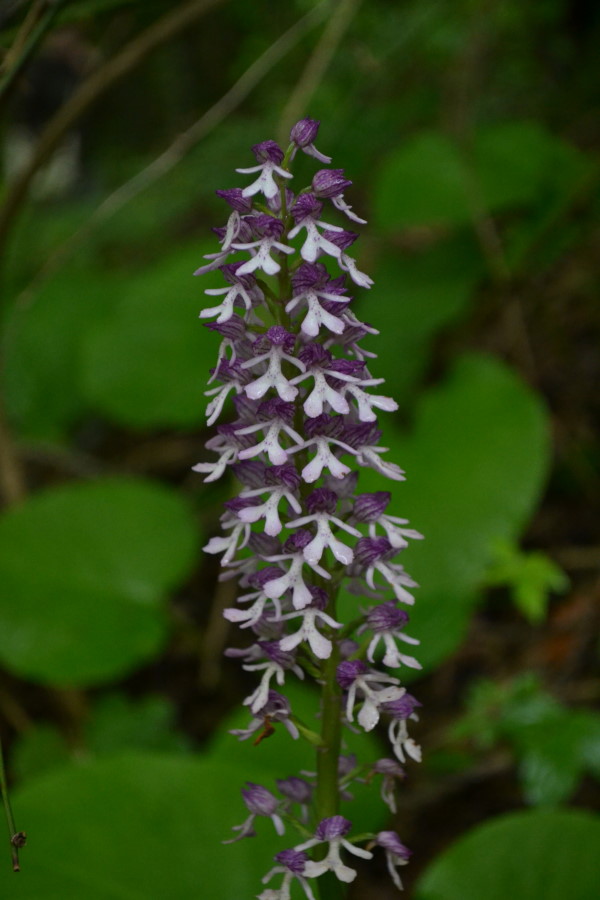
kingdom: Plantae
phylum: Tracheophyta
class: Liliopsida
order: Asparagales
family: Orchidaceae
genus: Orchis
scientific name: Orchis purpurea
